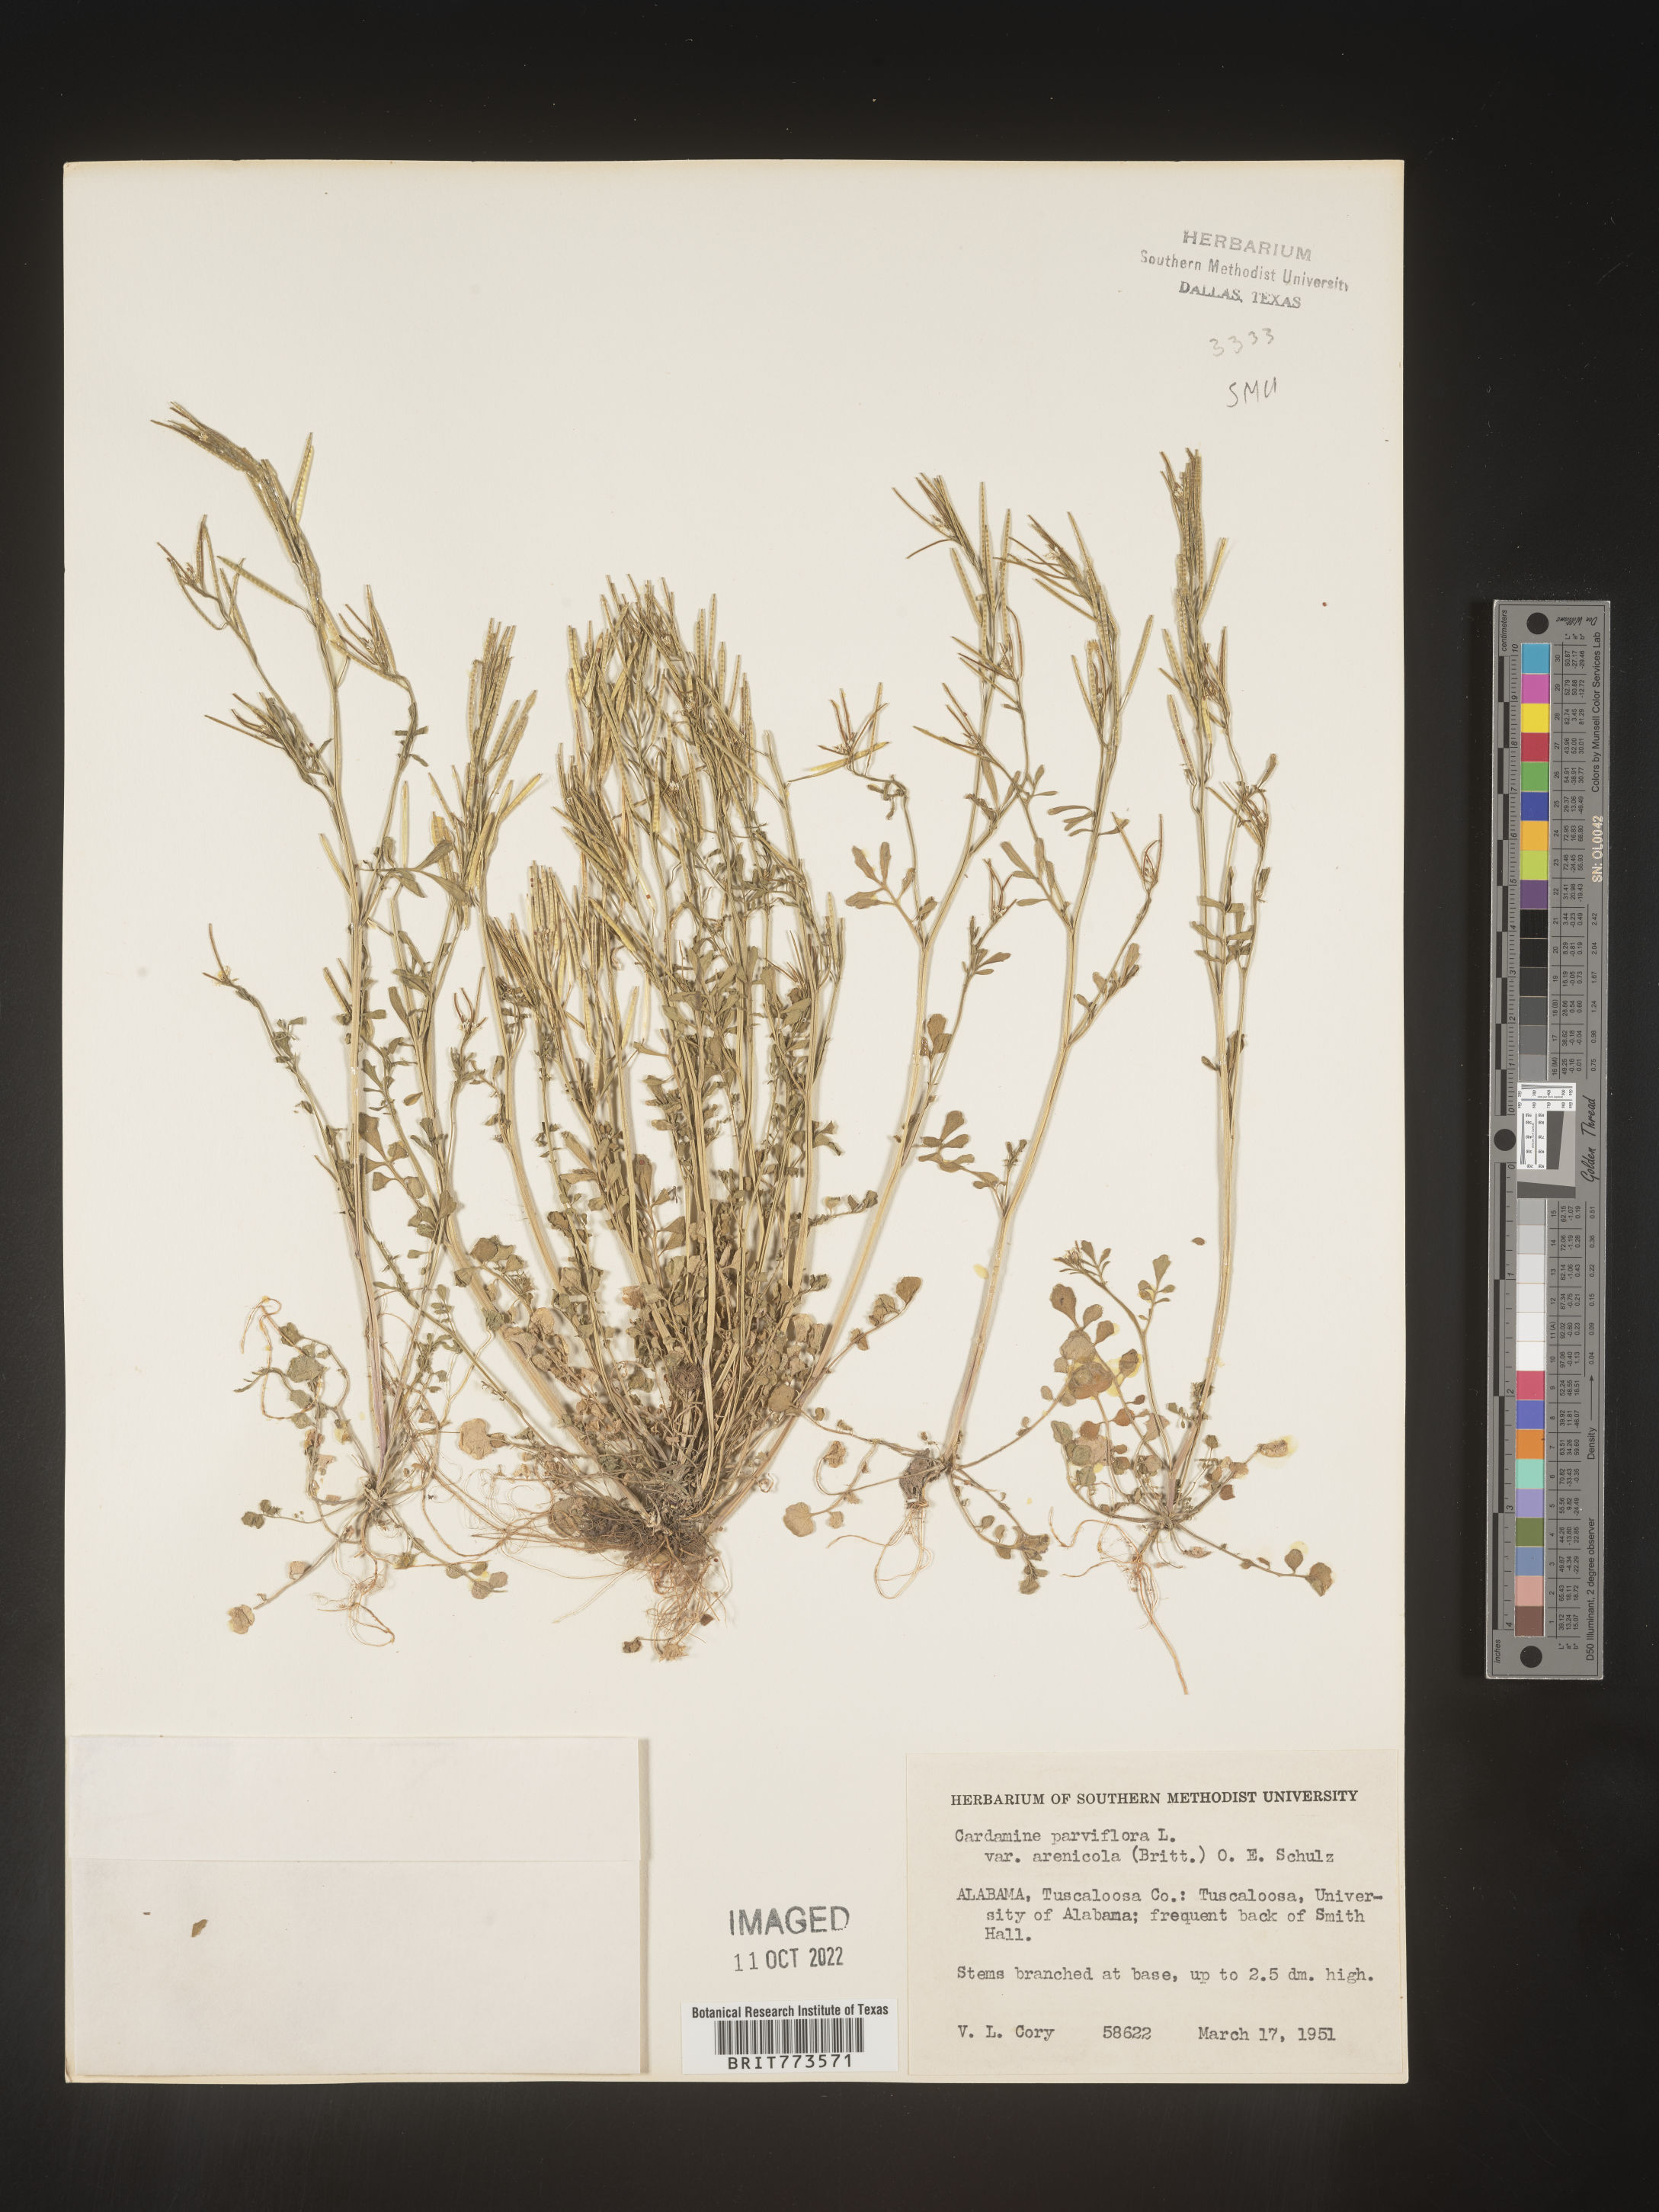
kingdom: Plantae
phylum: Tracheophyta
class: Magnoliopsida
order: Brassicales
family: Brassicaceae
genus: Cardamine
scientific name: Cardamine parviflora
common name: Sand bittercress
